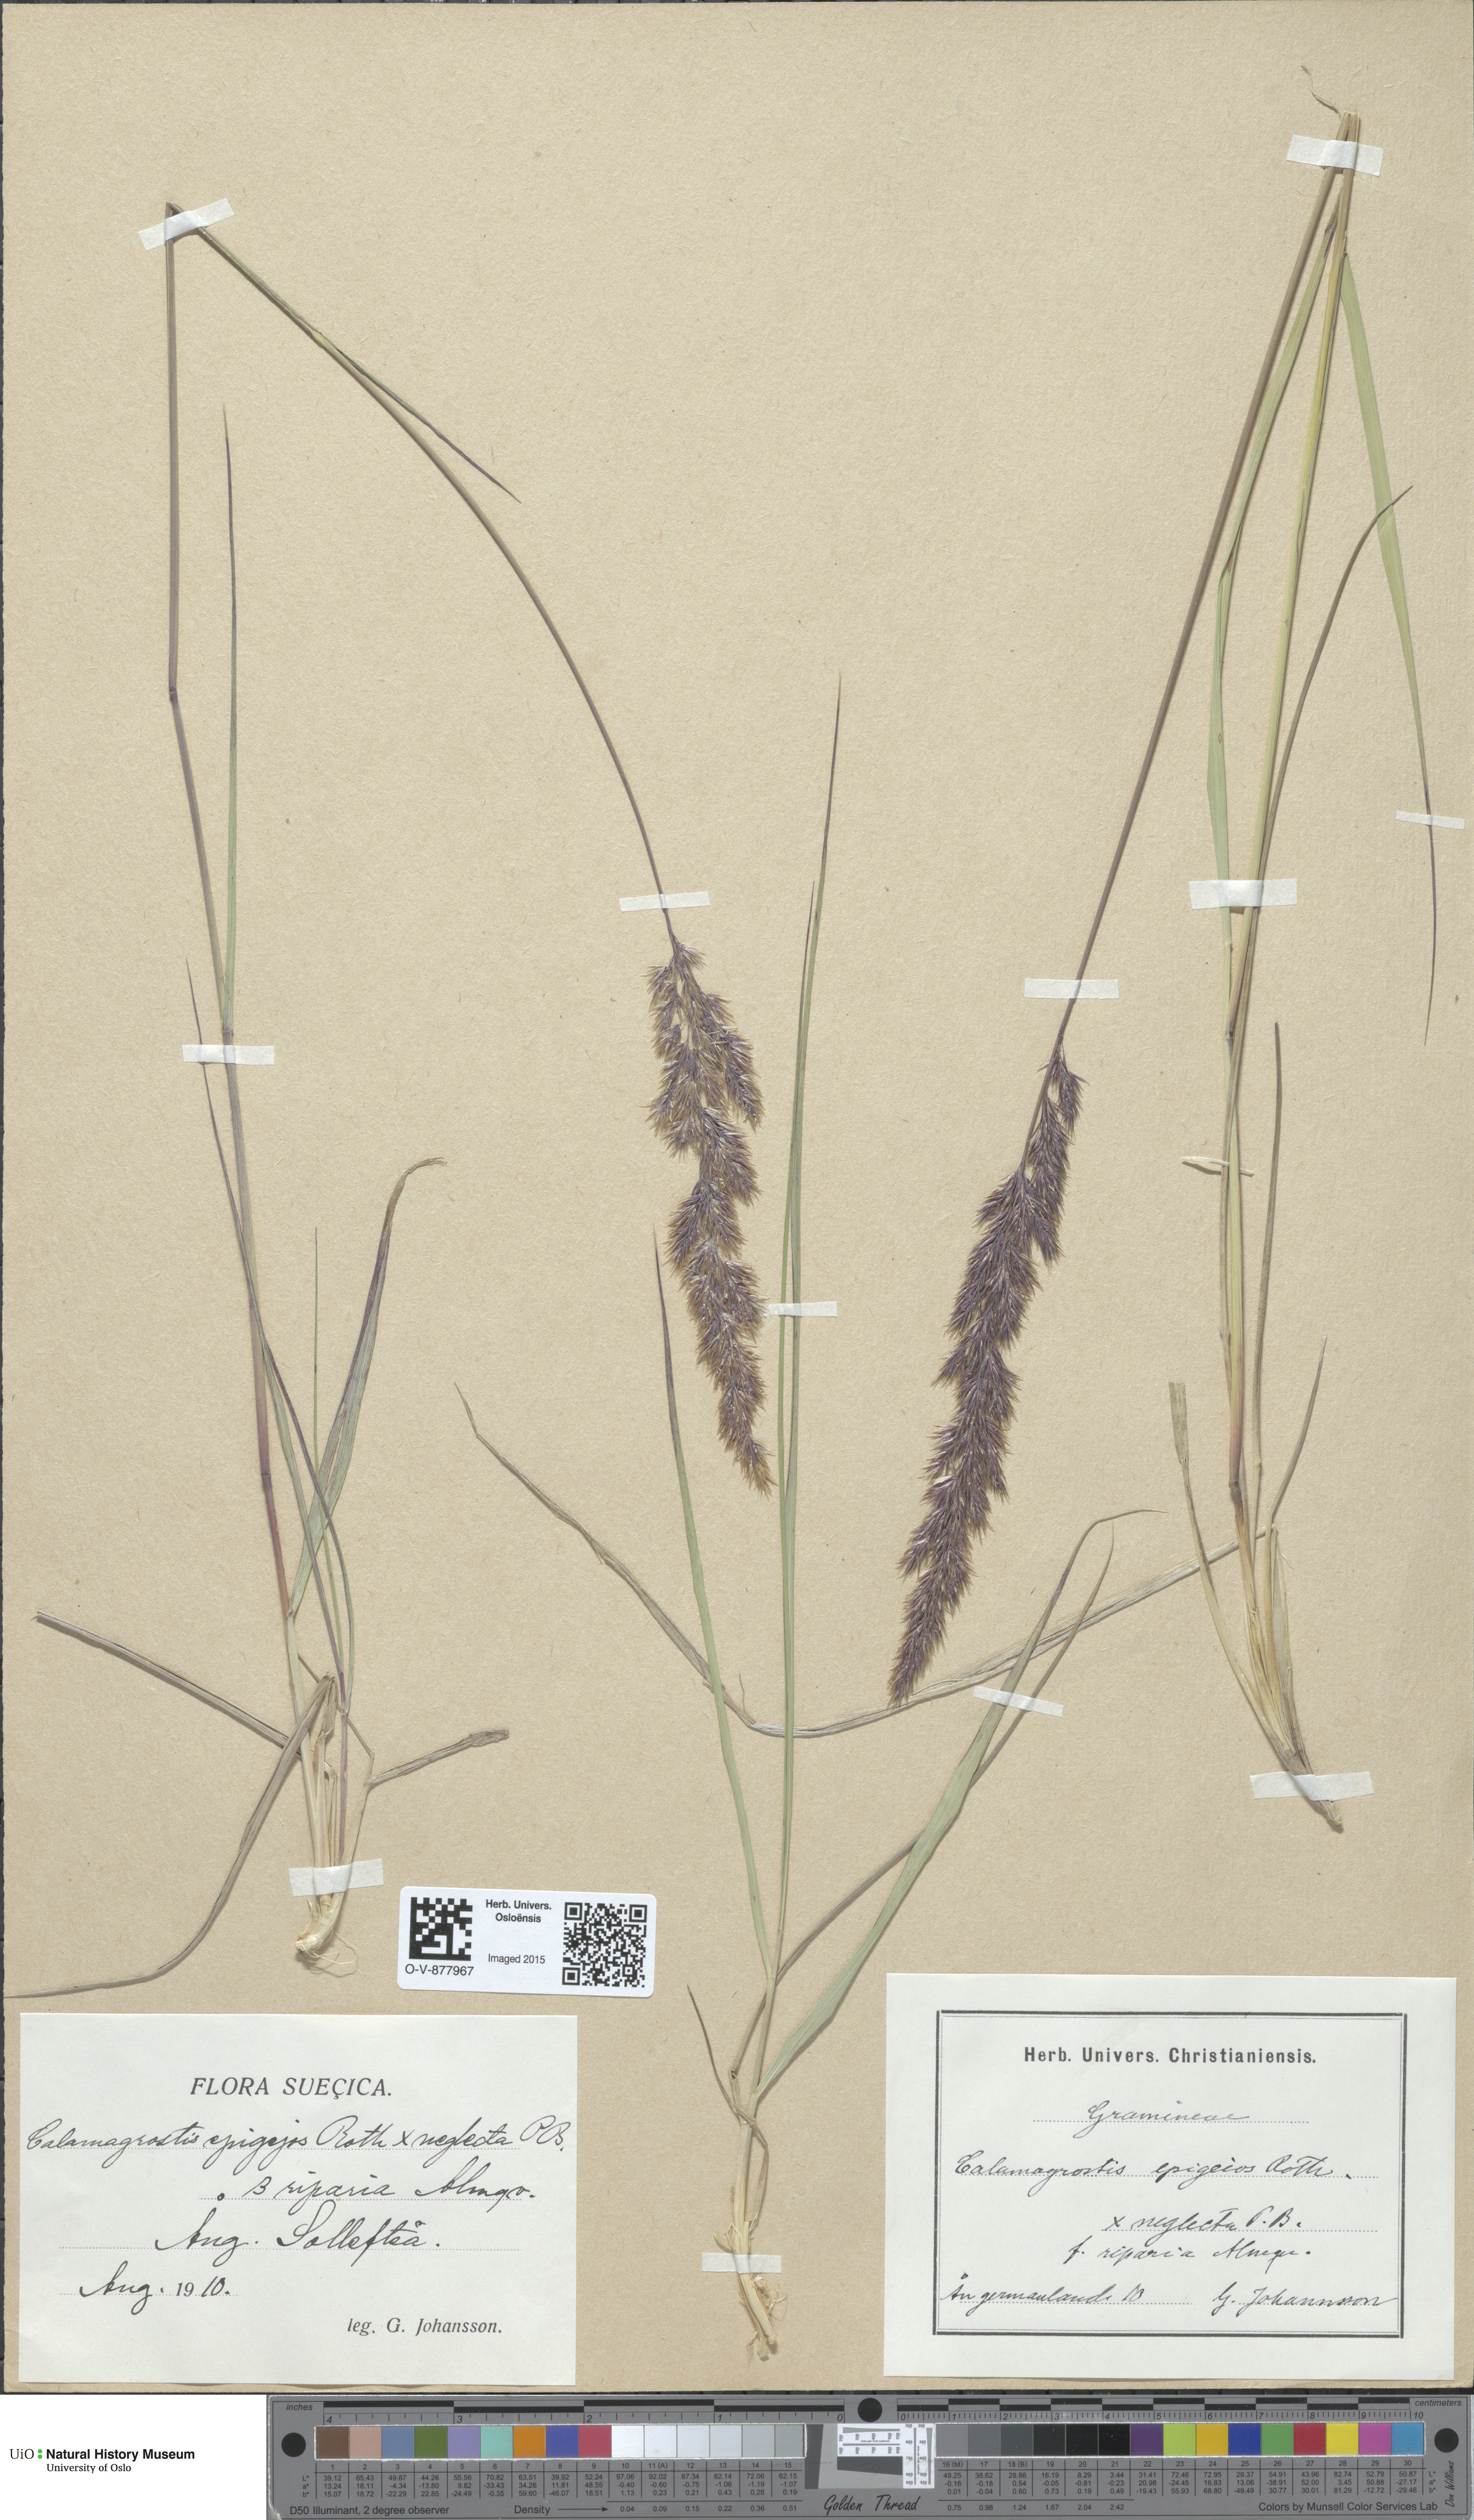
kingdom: Plantae
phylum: Tracheophyta
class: Liliopsida
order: Poales
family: Poaceae
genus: Calamagrostis
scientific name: Calamagrostis
